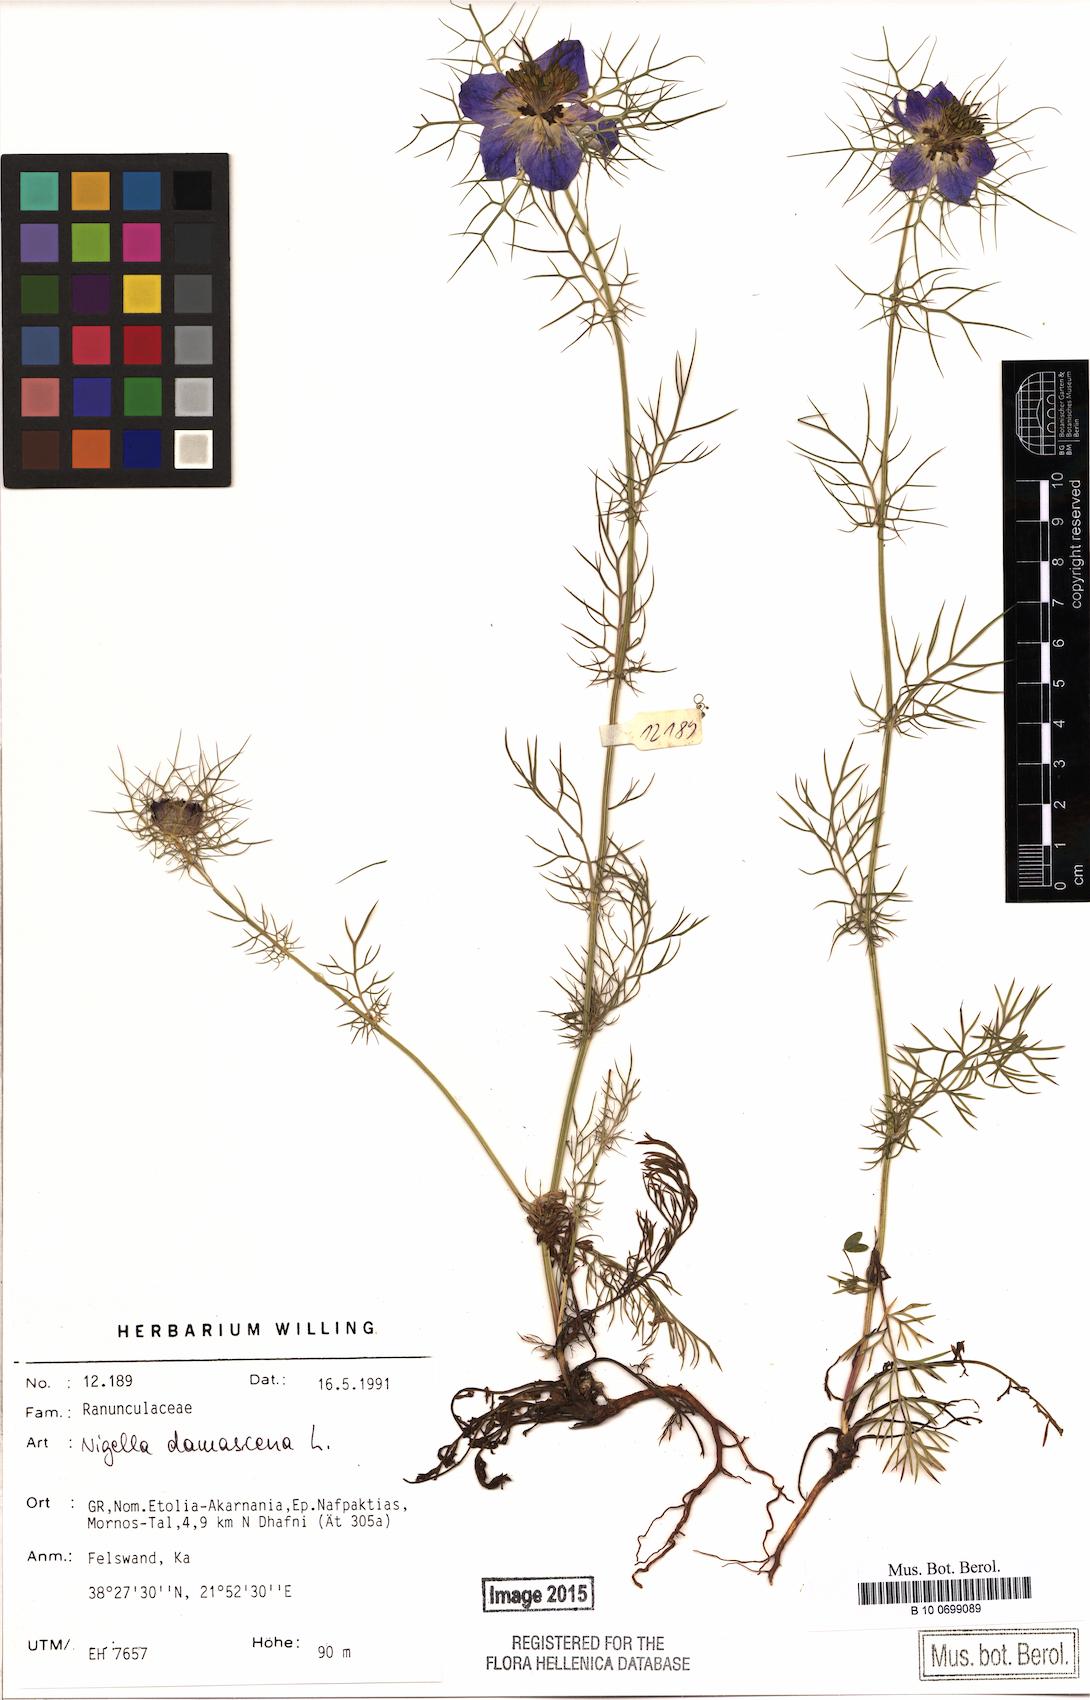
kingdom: Plantae
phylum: Tracheophyta
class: Magnoliopsida
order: Ranunculales
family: Ranunculaceae
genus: Nigella
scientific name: Nigella damascena
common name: Love-in-a-mist
